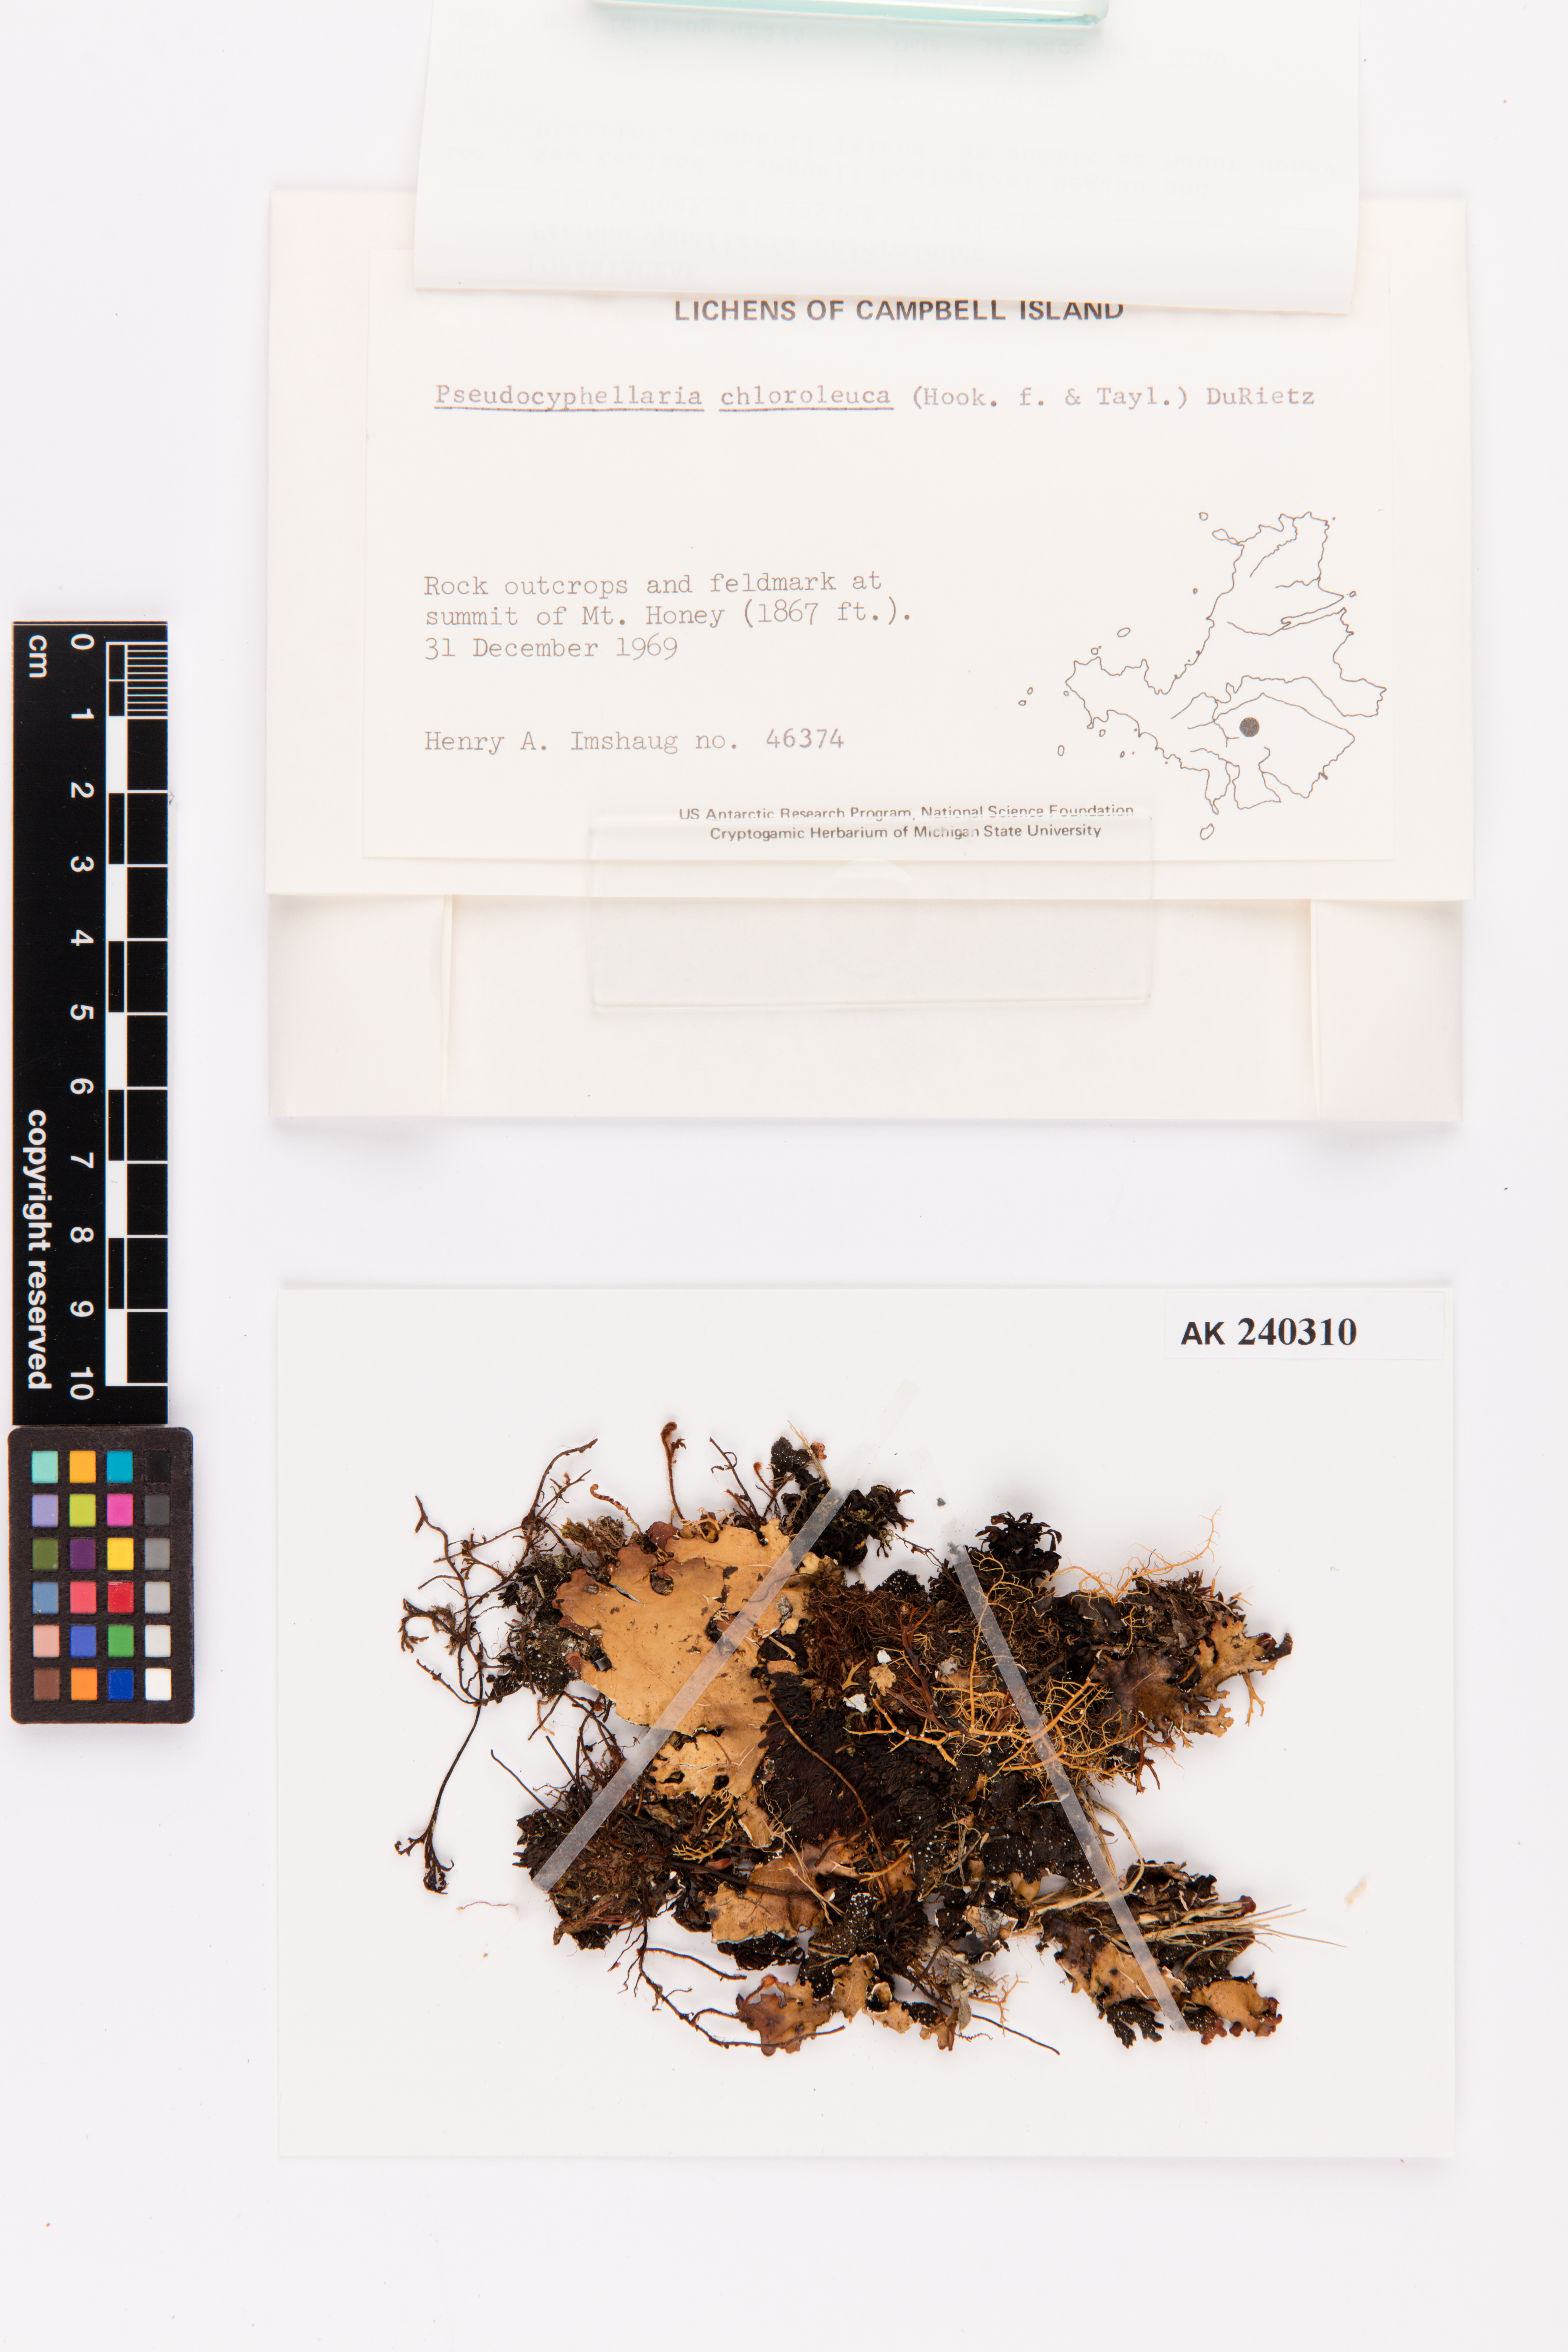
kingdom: Fungi
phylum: Ascomycota
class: Lecanoromycetes
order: Peltigerales
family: Lobariaceae
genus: Pseudocyphellaria
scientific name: Pseudocyphellaria chloroleuca
